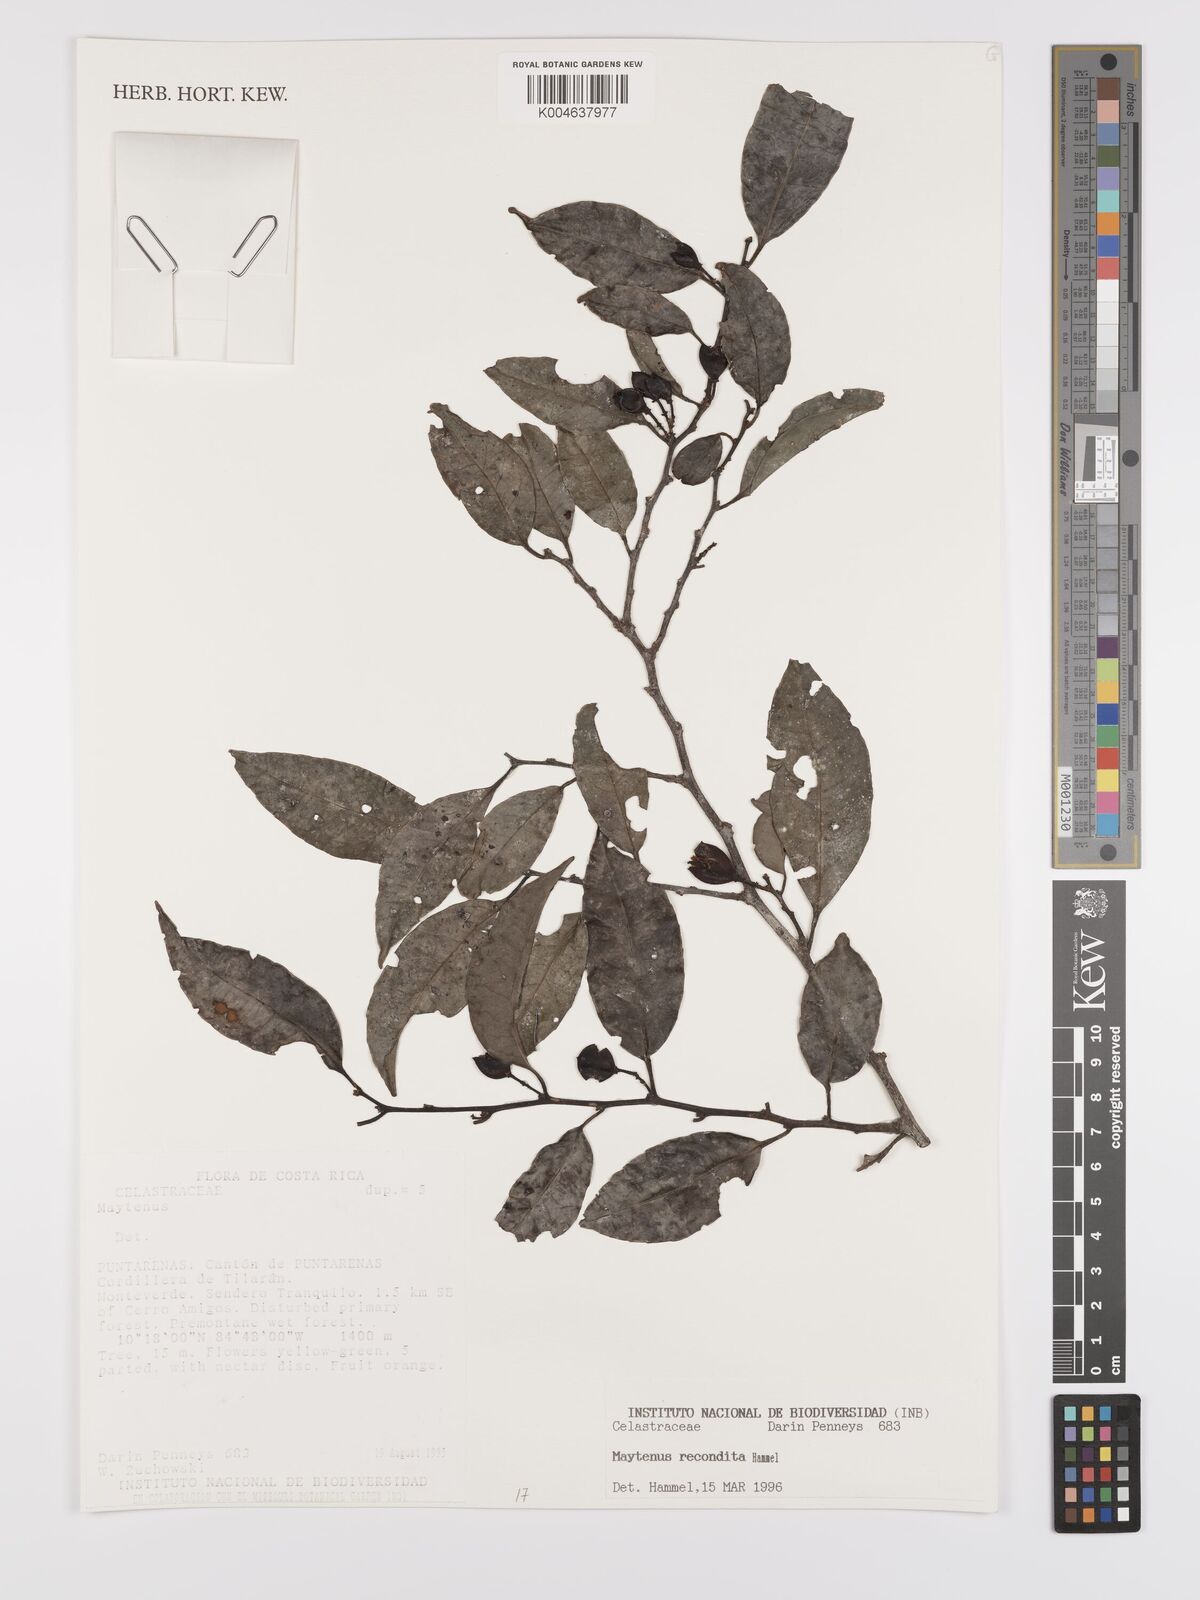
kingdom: Plantae
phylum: Tracheophyta
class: Magnoliopsida
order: Celastrales
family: Celastraceae
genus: Maytenus
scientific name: Maytenus
